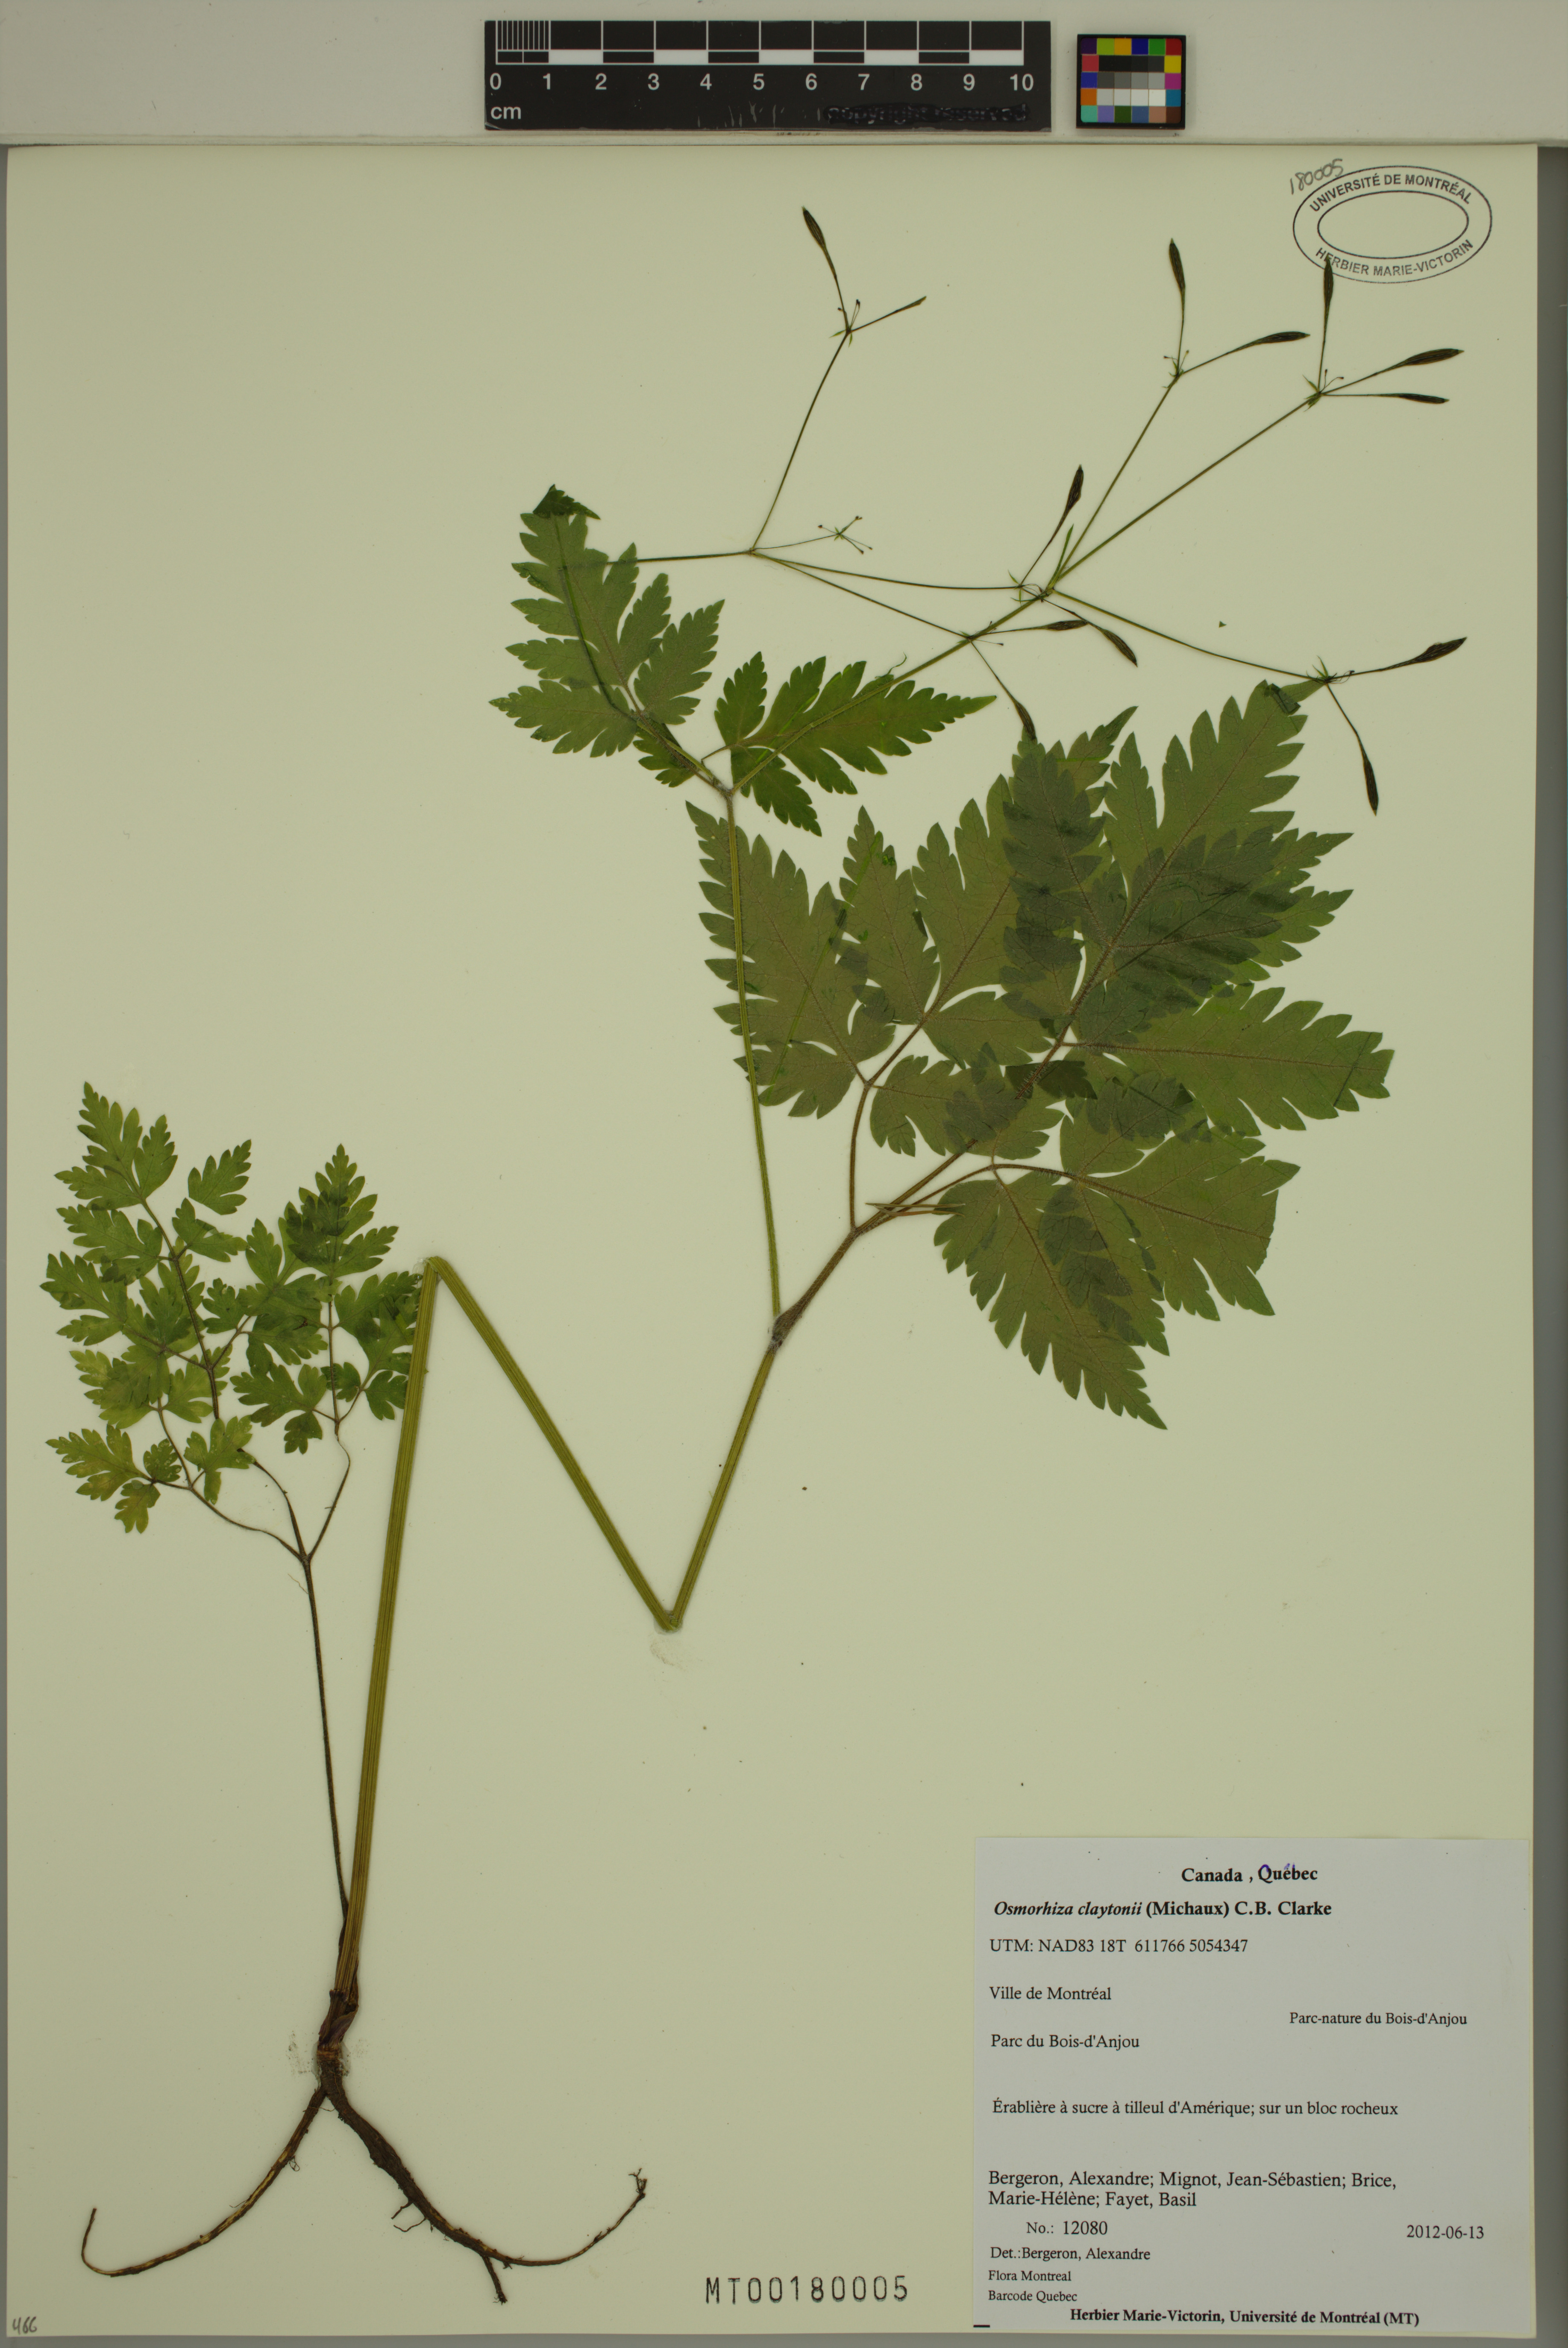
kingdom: Plantae
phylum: Tracheophyta
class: Magnoliopsida
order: Apiales
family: Apiaceae
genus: Osmorhiza
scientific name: Osmorhiza claytonii
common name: Hairy sweet cicely
